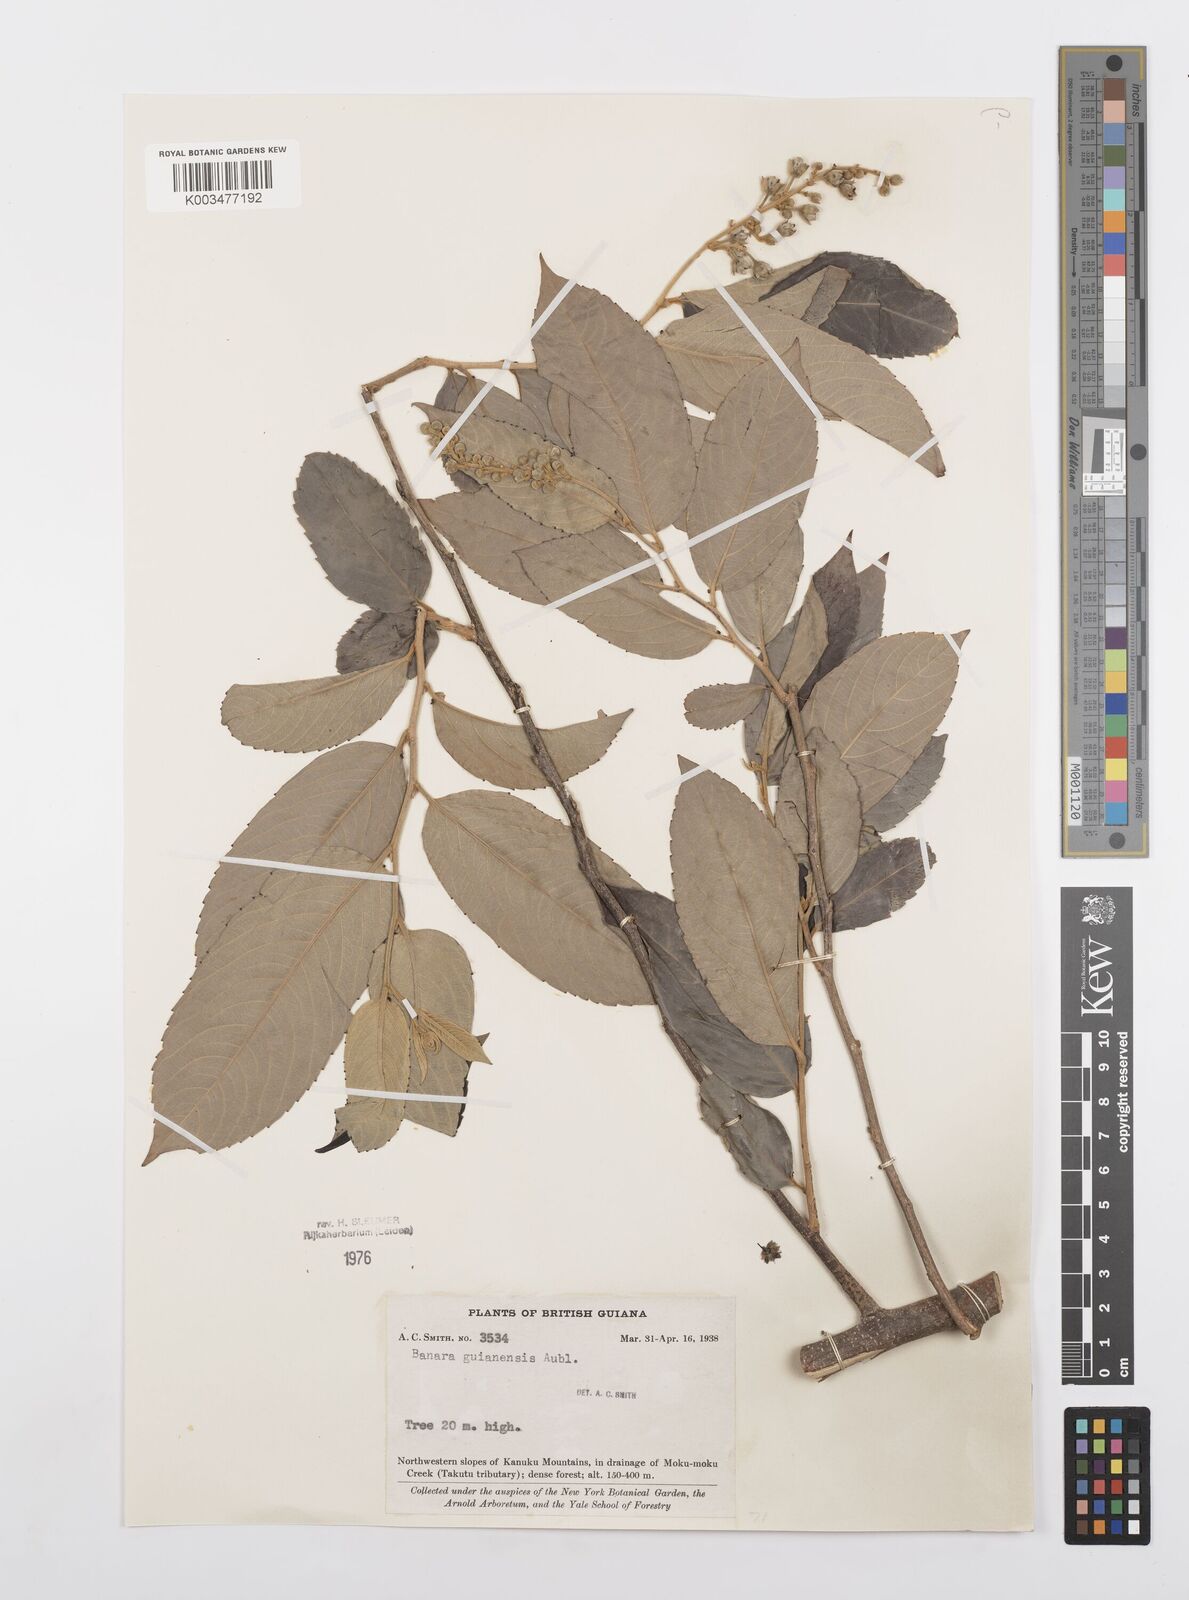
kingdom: Plantae
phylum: Tracheophyta
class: Magnoliopsida
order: Malpighiales
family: Salicaceae
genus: Banara
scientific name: Banara guianensis
